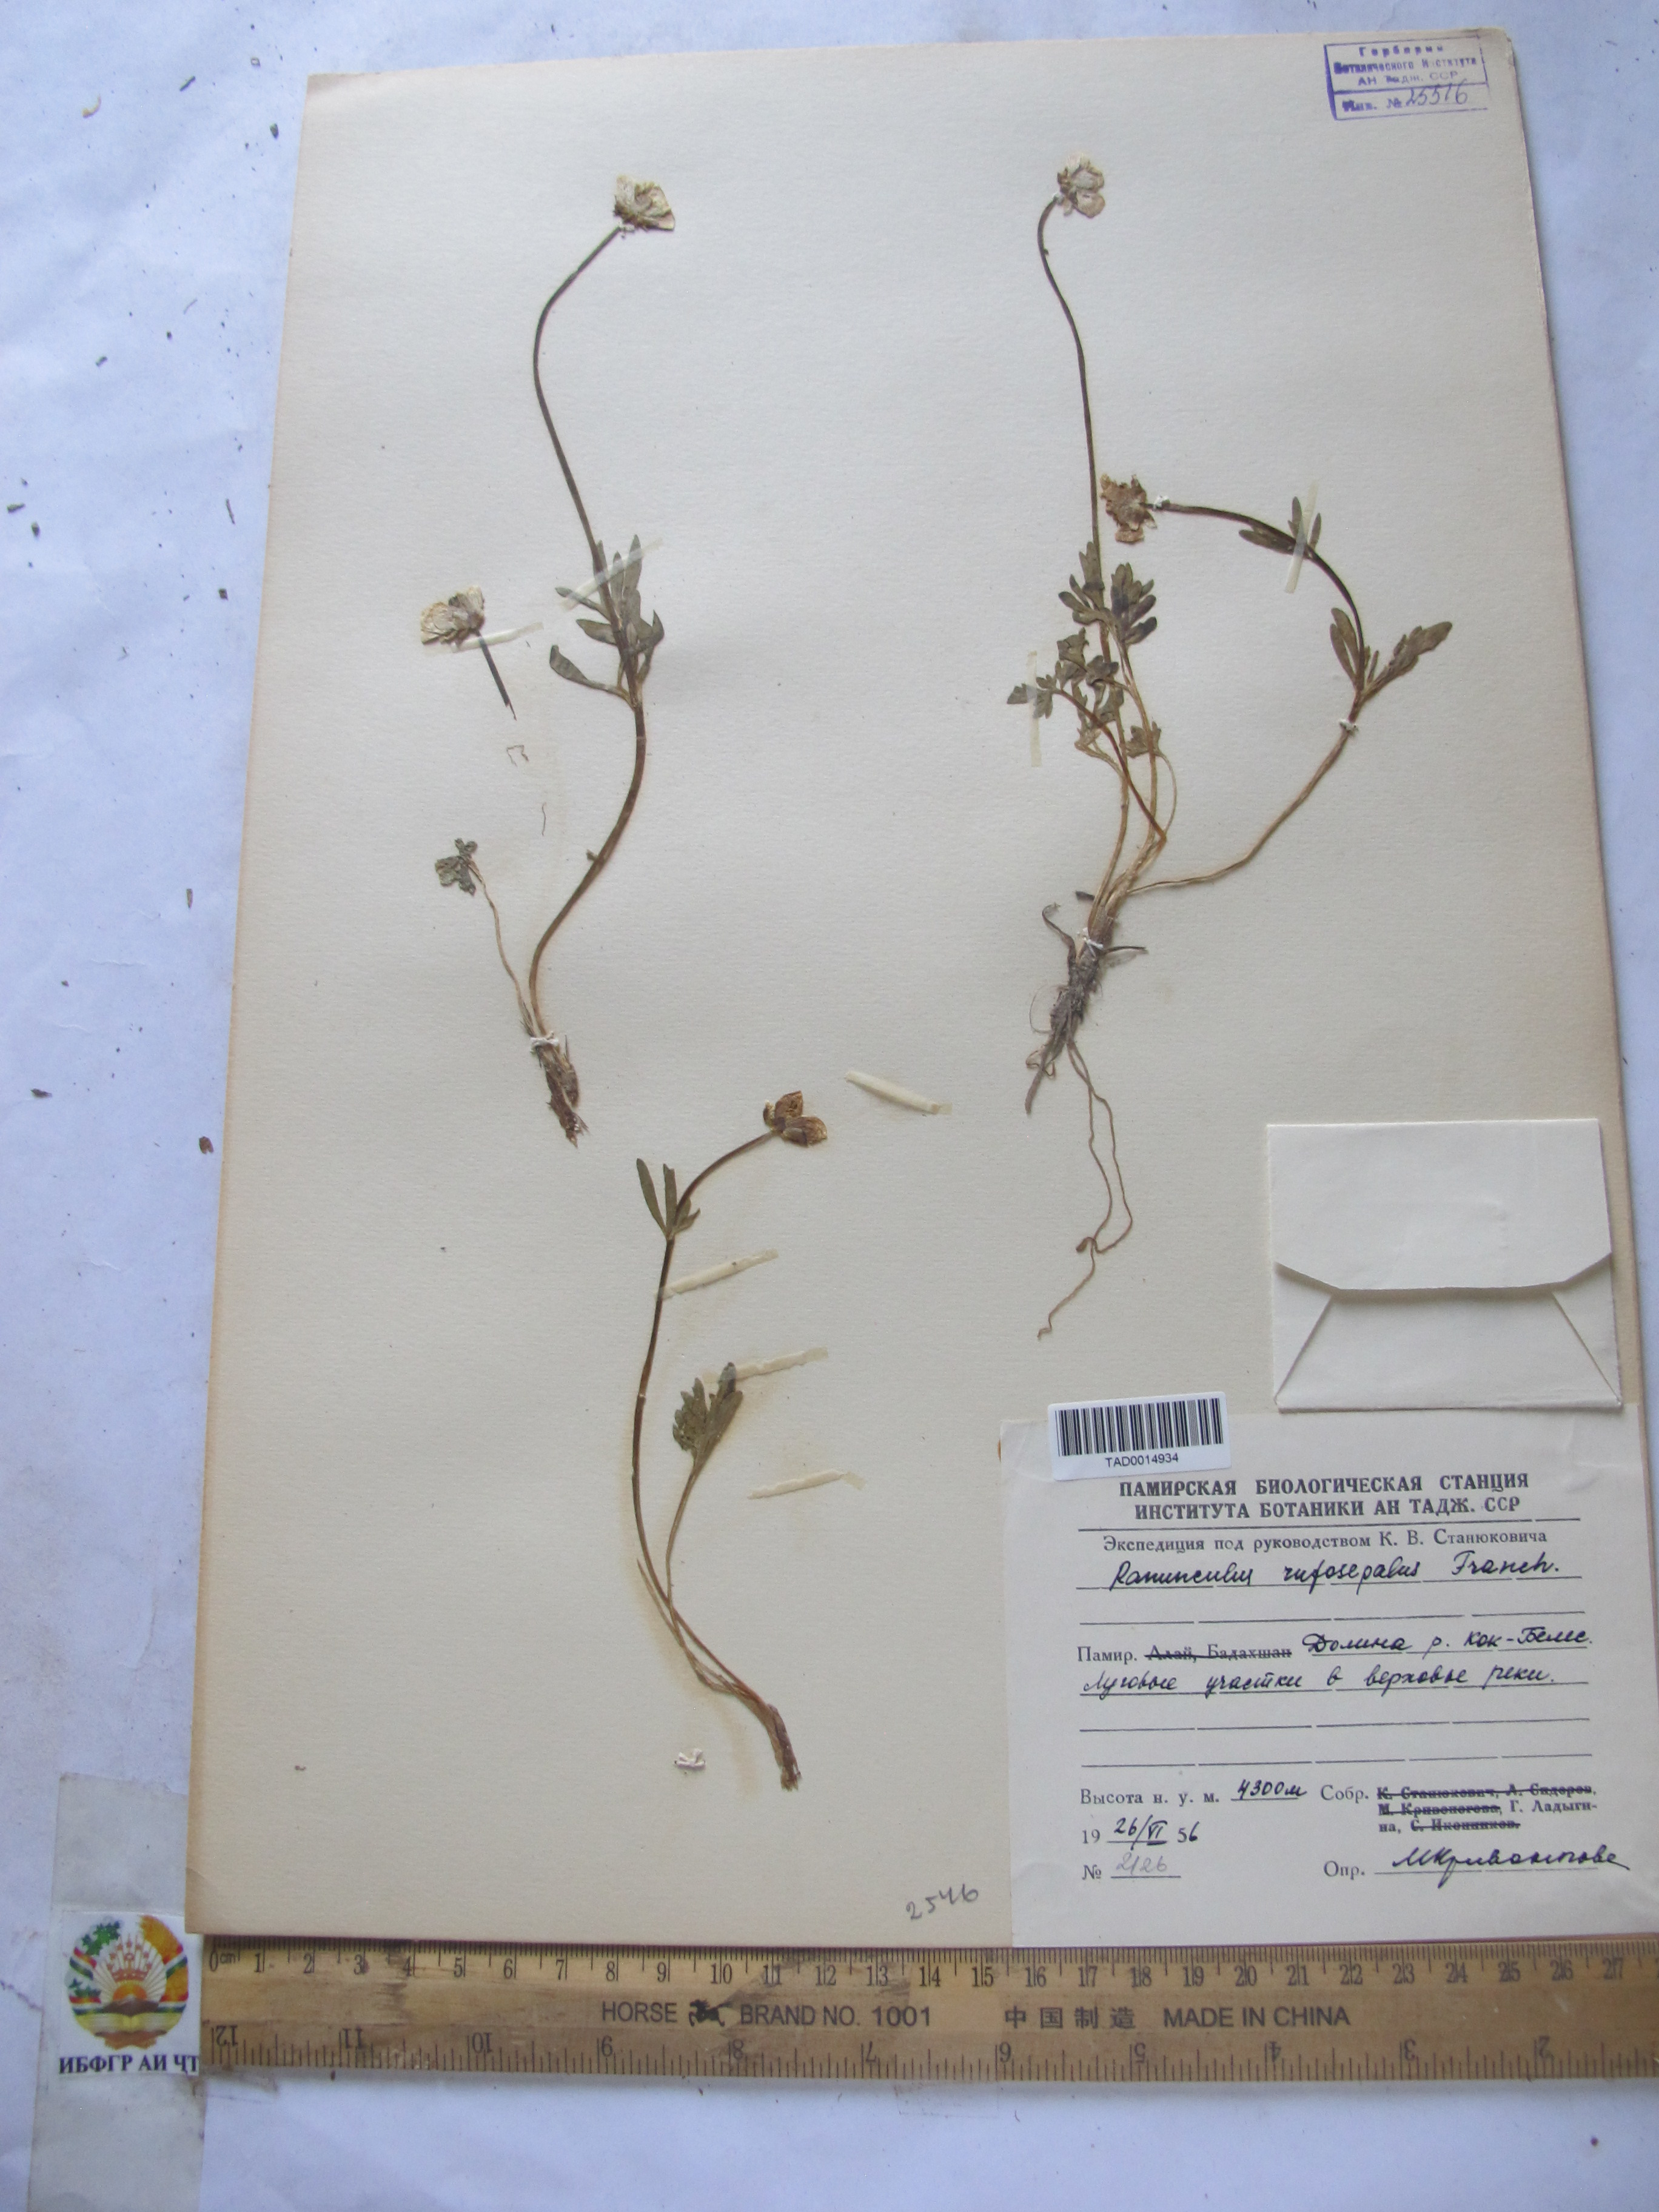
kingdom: Plantae
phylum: Tracheophyta
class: Magnoliopsida
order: Ranunculales
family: Ranunculaceae
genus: Ranunculus
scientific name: Ranunculus rufosepalus
